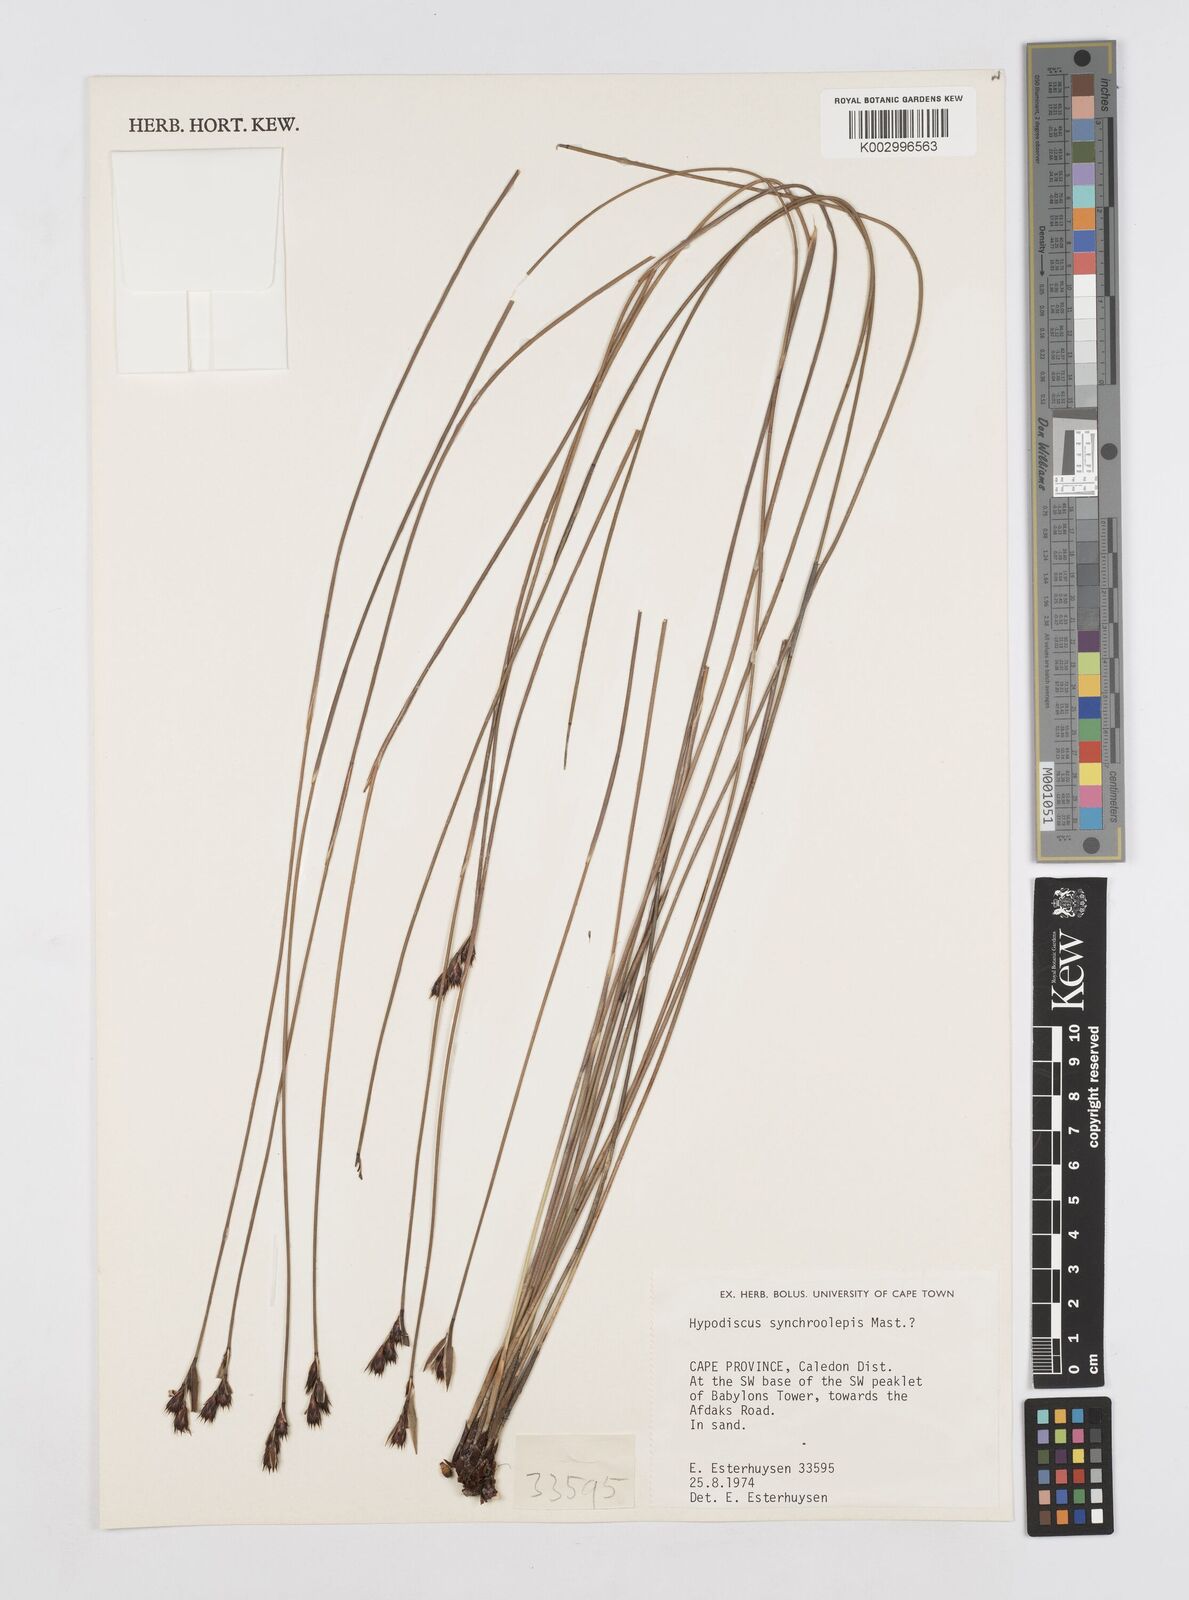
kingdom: Plantae
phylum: Tracheophyta
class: Liliopsida
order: Poales
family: Restionaceae
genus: Hypodiscus
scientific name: Hypodiscus synchroolepis
